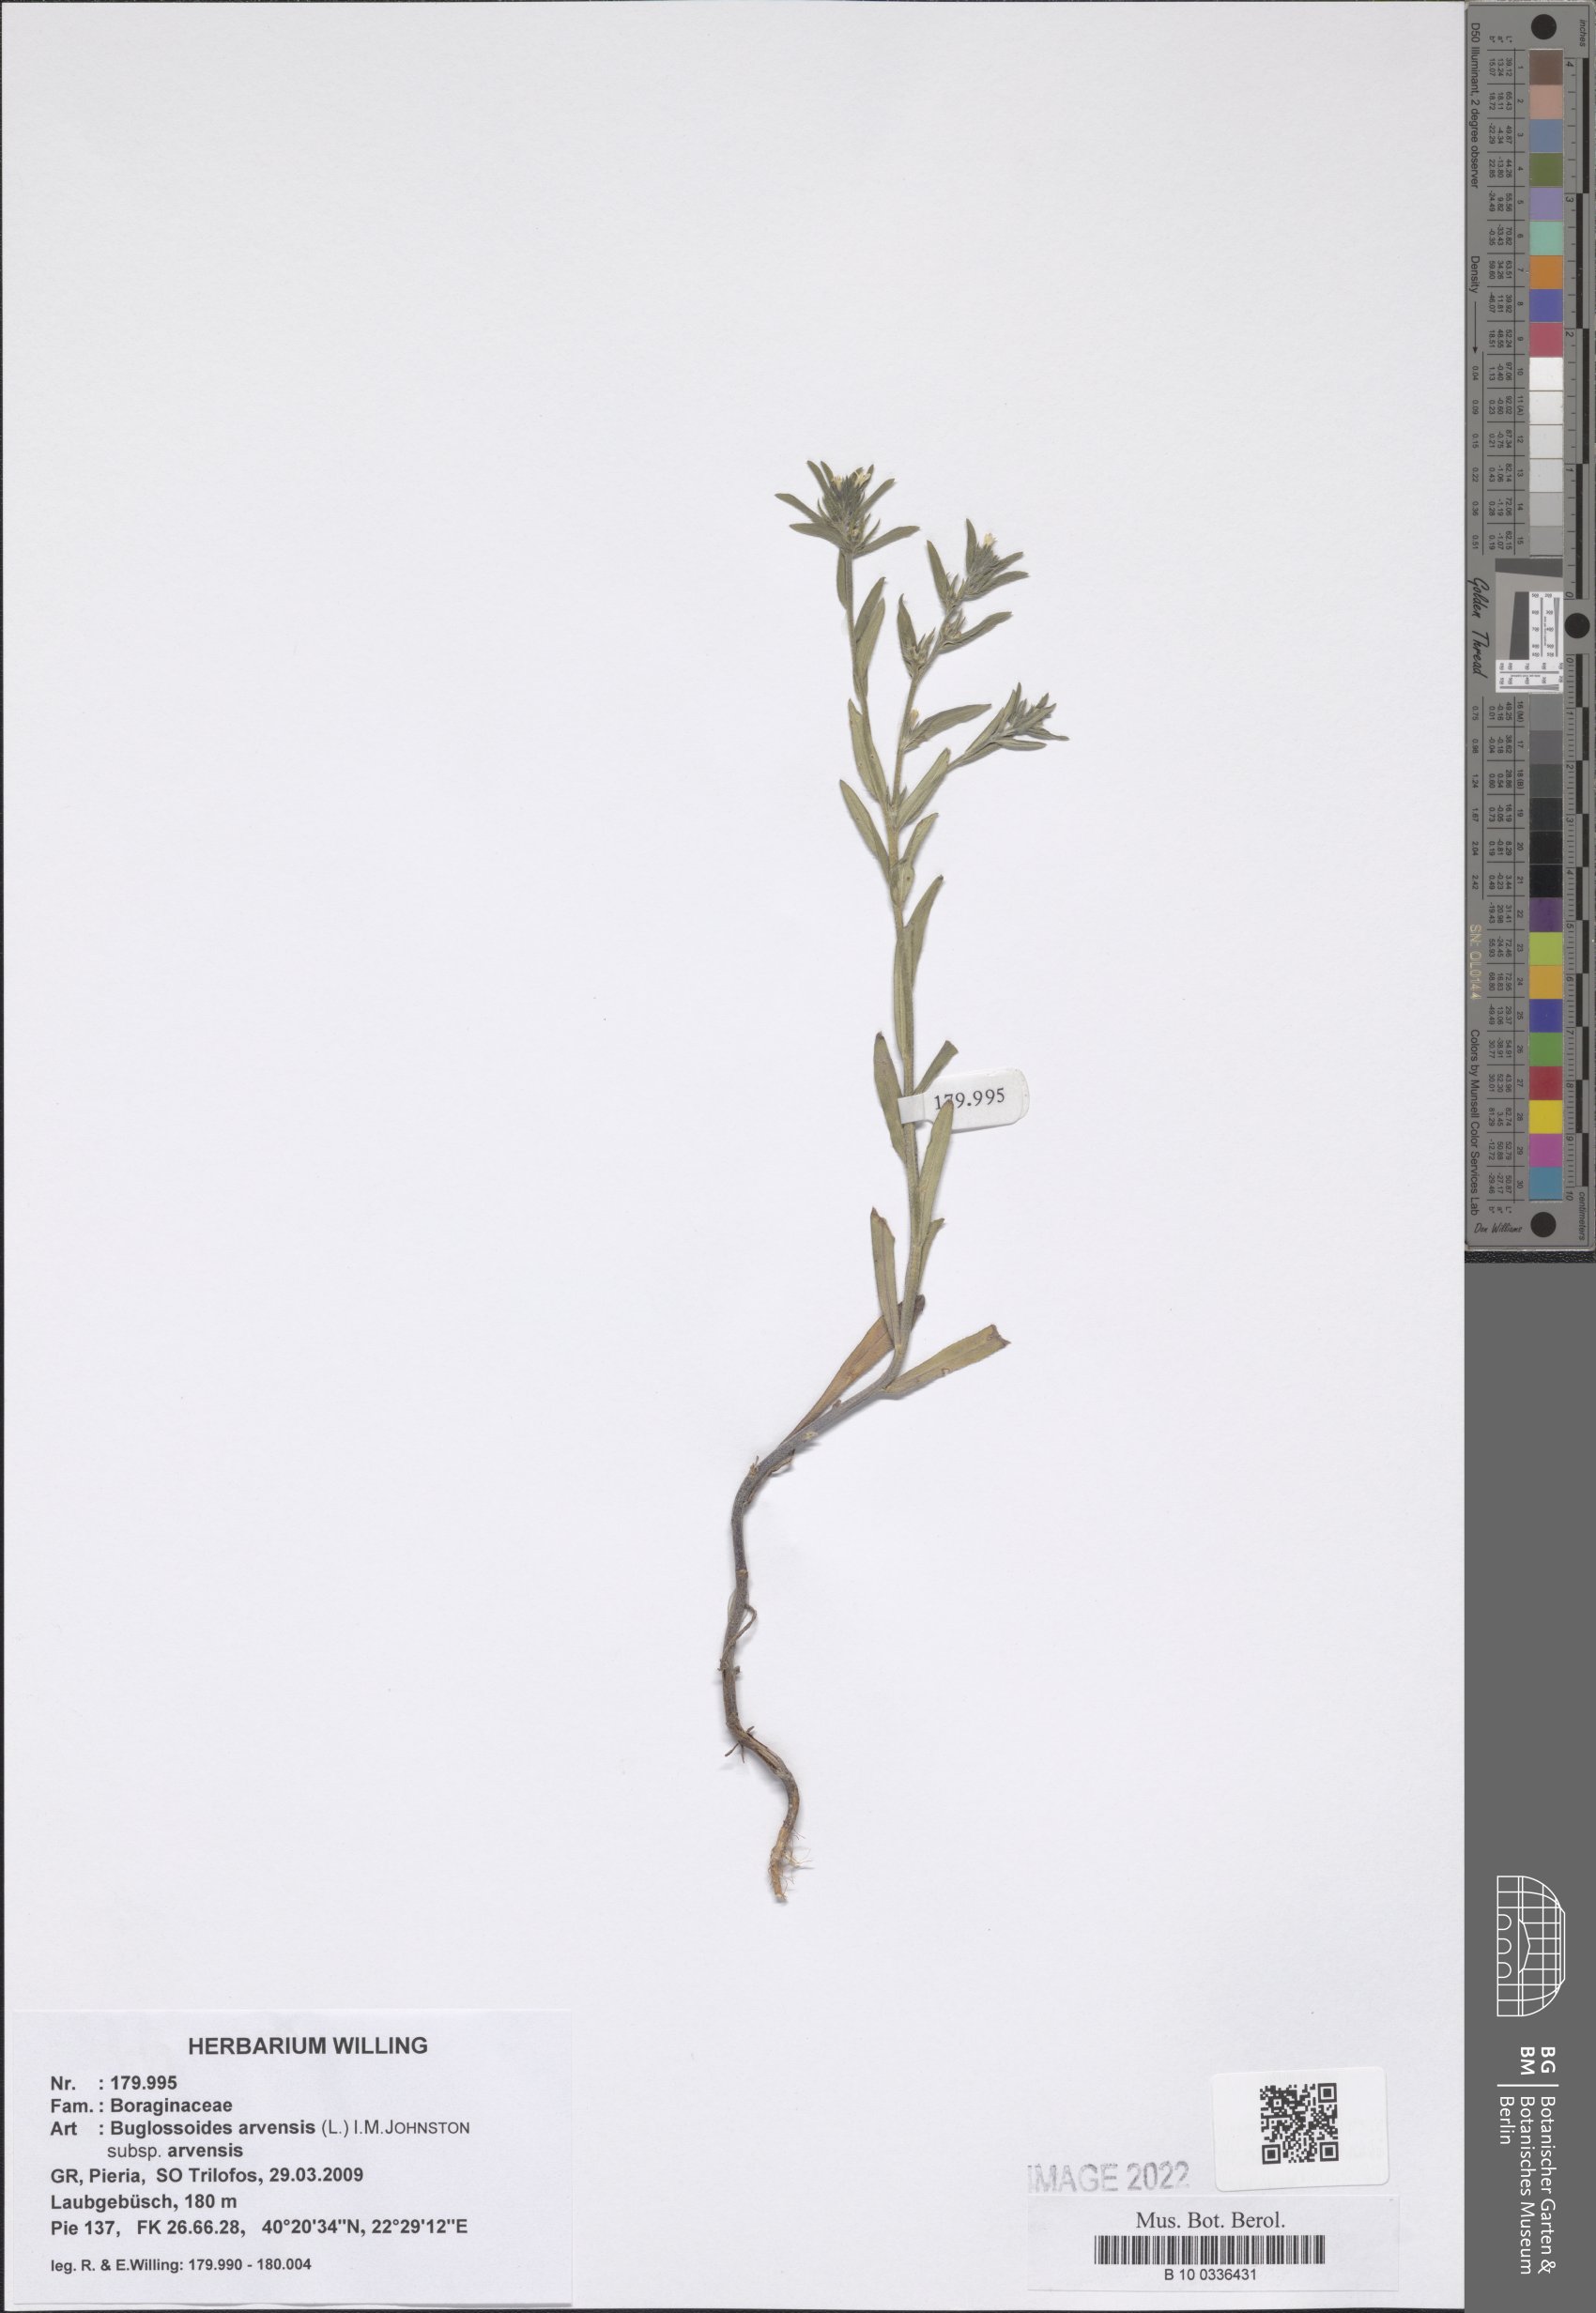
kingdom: Plantae
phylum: Tracheophyta
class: Magnoliopsida
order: Boraginales
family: Boraginaceae
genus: Buglossoides
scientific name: Buglossoides arvensis
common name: Corn gromwell
